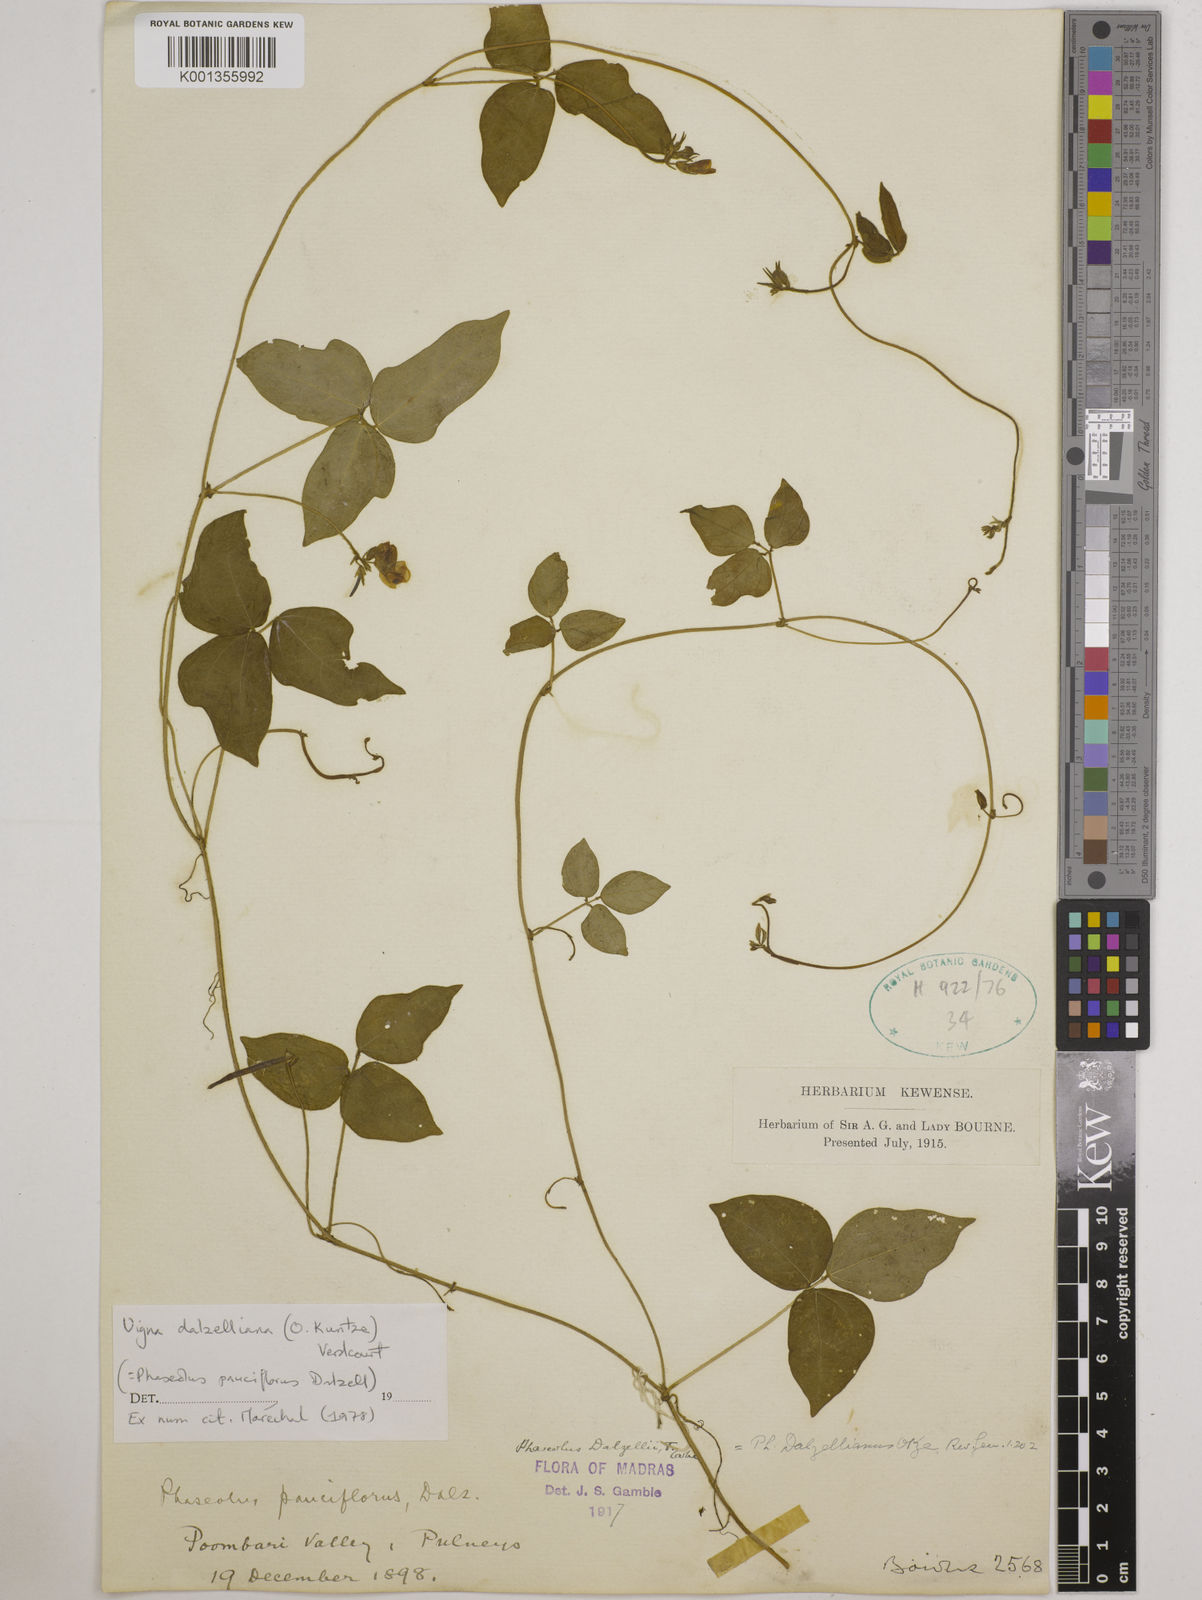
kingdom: Plantae
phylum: Tracheophyta
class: Magnoliopsida
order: Fabales
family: Fabaceae
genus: Vigna
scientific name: Vigna dalzelliana
